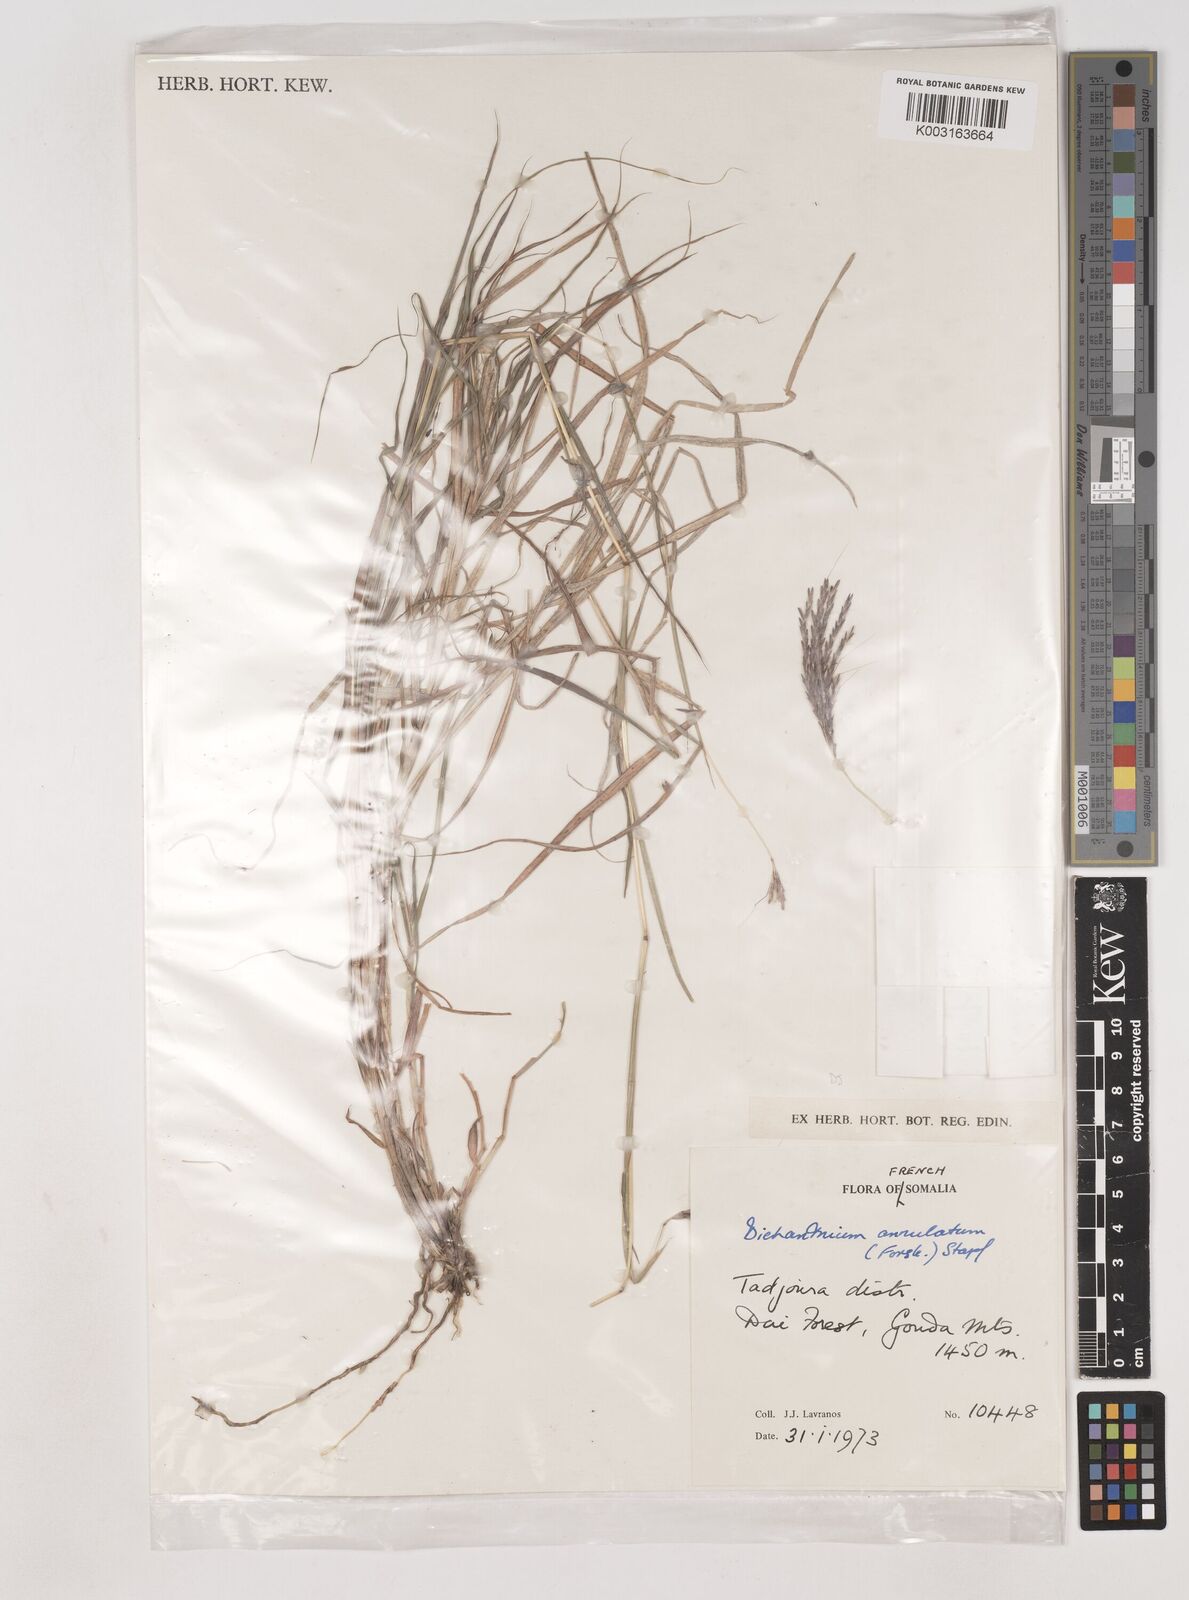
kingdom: Plantae
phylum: Tracheophyta
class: Liliopsida
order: Poales
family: Poaceae
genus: Dichanthium
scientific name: Dichanthium annulatum
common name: Kleberg's bluestem
